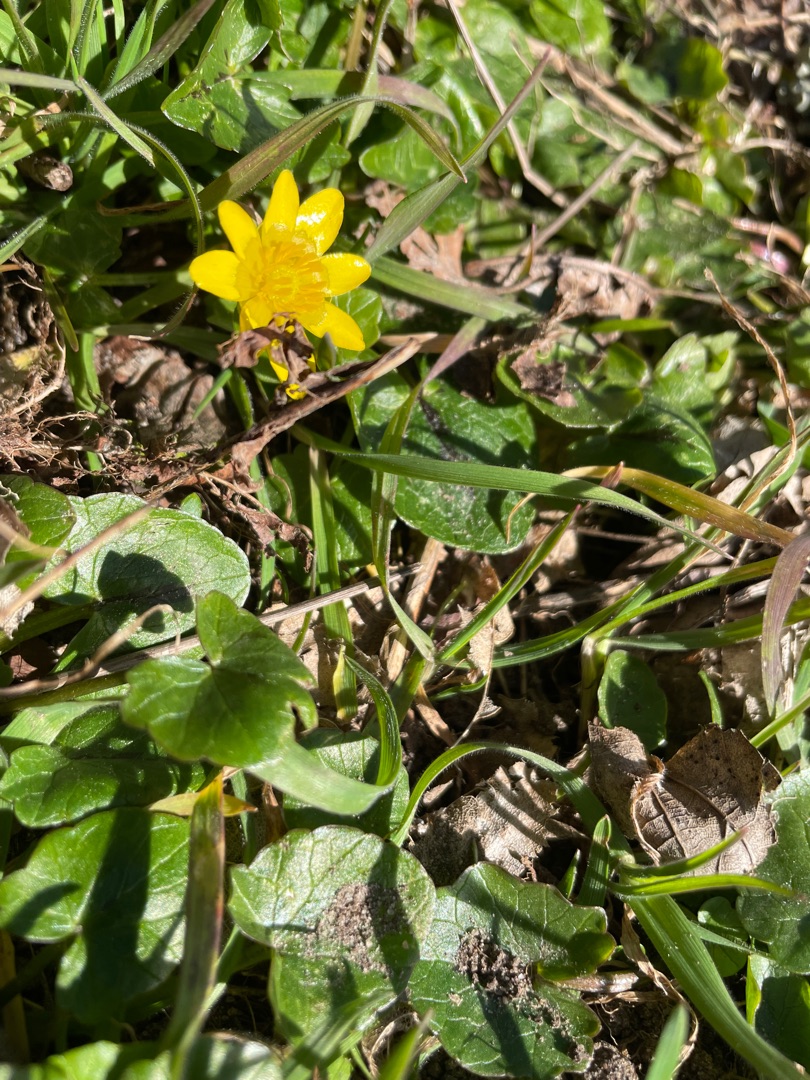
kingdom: Plantae
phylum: Tracheophyta
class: Magnoliopsida
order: Ranunculales
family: Ranunculaceae
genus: Ficaria
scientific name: Ficaria verna
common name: Vorterod
